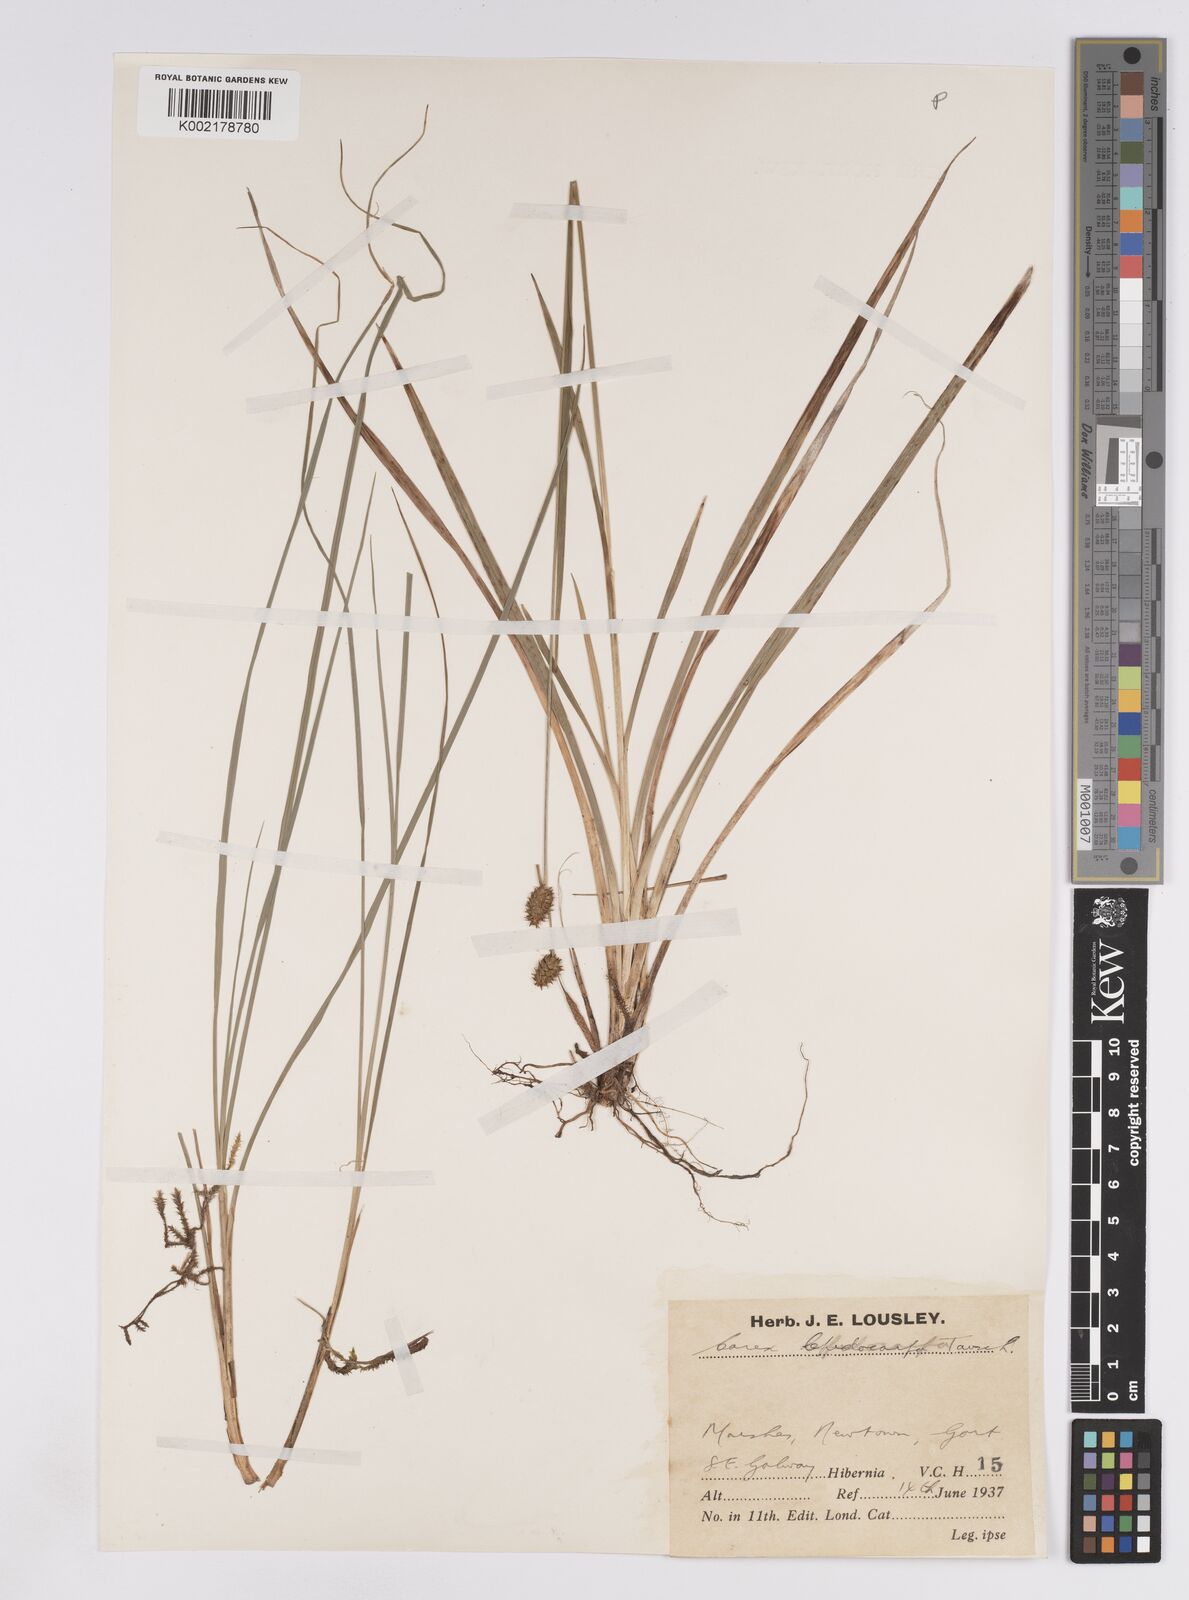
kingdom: Plantae
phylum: Tracheophyta
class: Liliopsida
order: Poales
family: Cyperaceae
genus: Carex
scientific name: Carex lepidocarpa
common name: Long-stalked yellow-sedge
